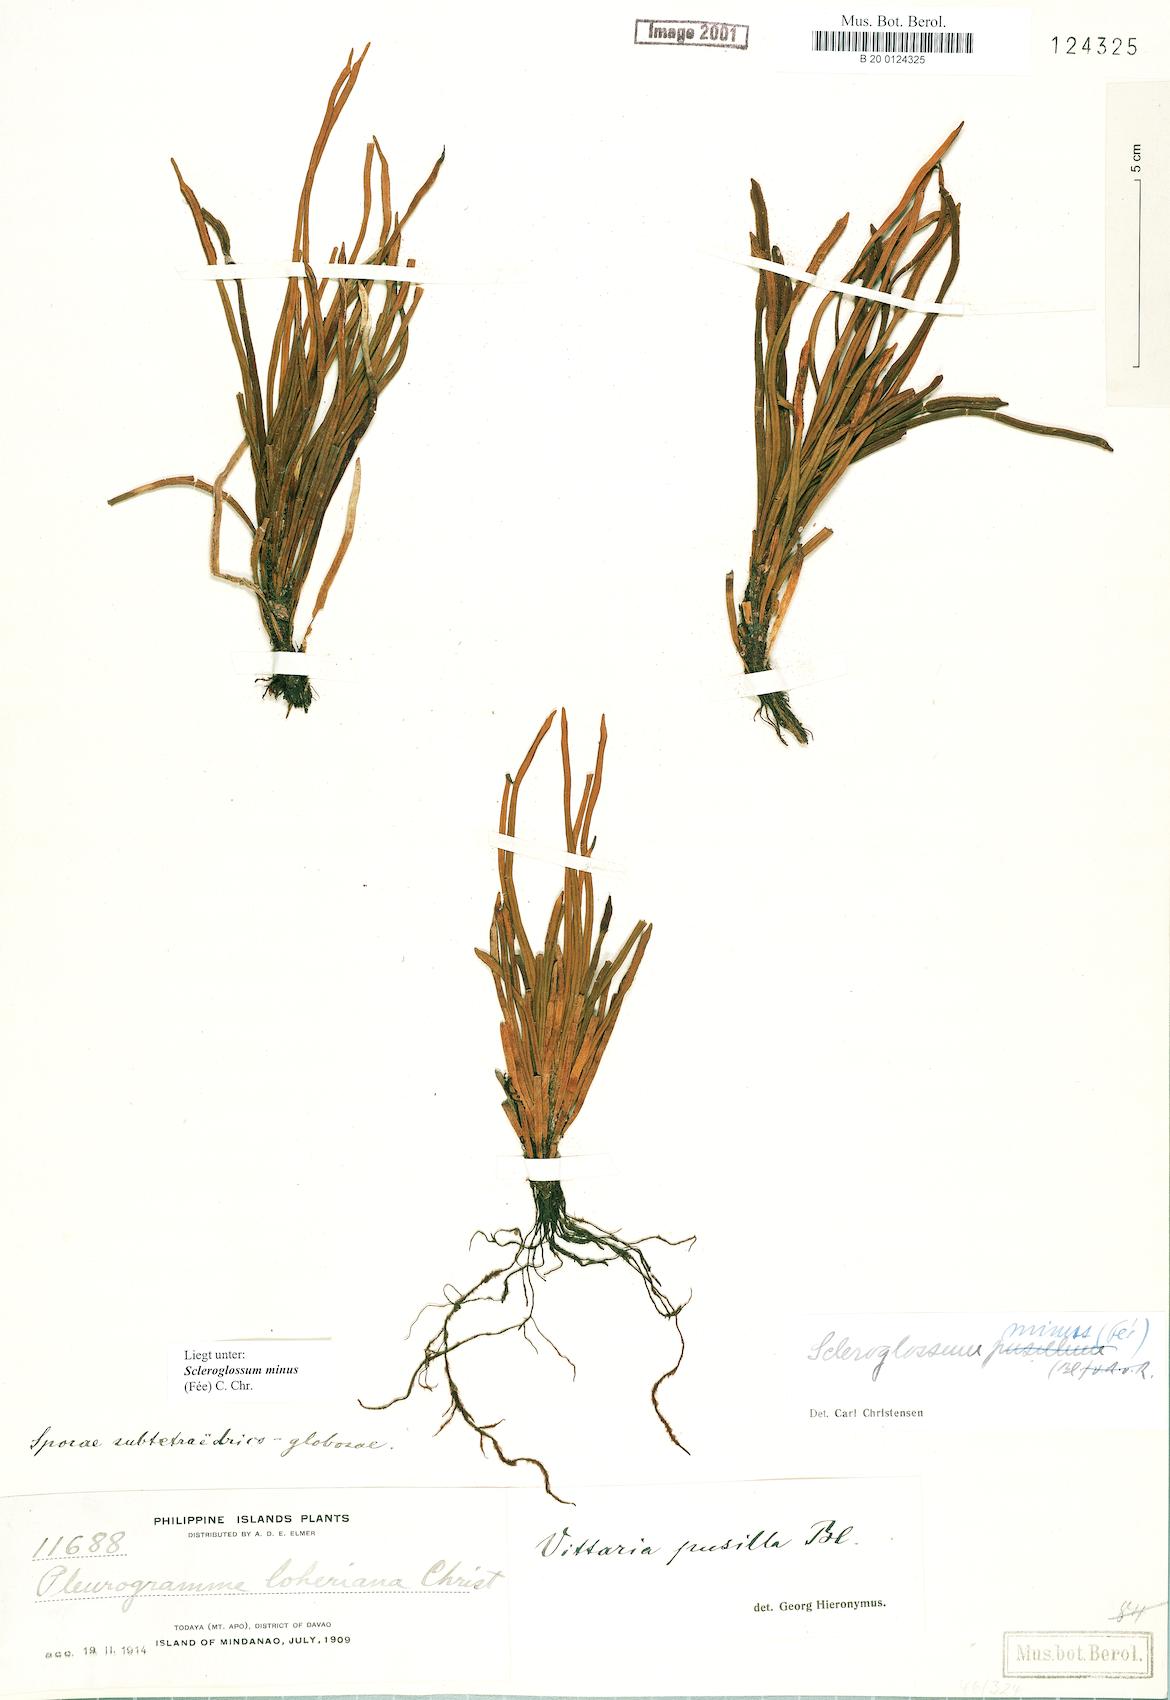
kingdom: Plantae
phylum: Tracheophyta
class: Polypodiopsida
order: Polypodiales
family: Polypodiaceae
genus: Scleroglossum
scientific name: Scleroglossum pusillum
